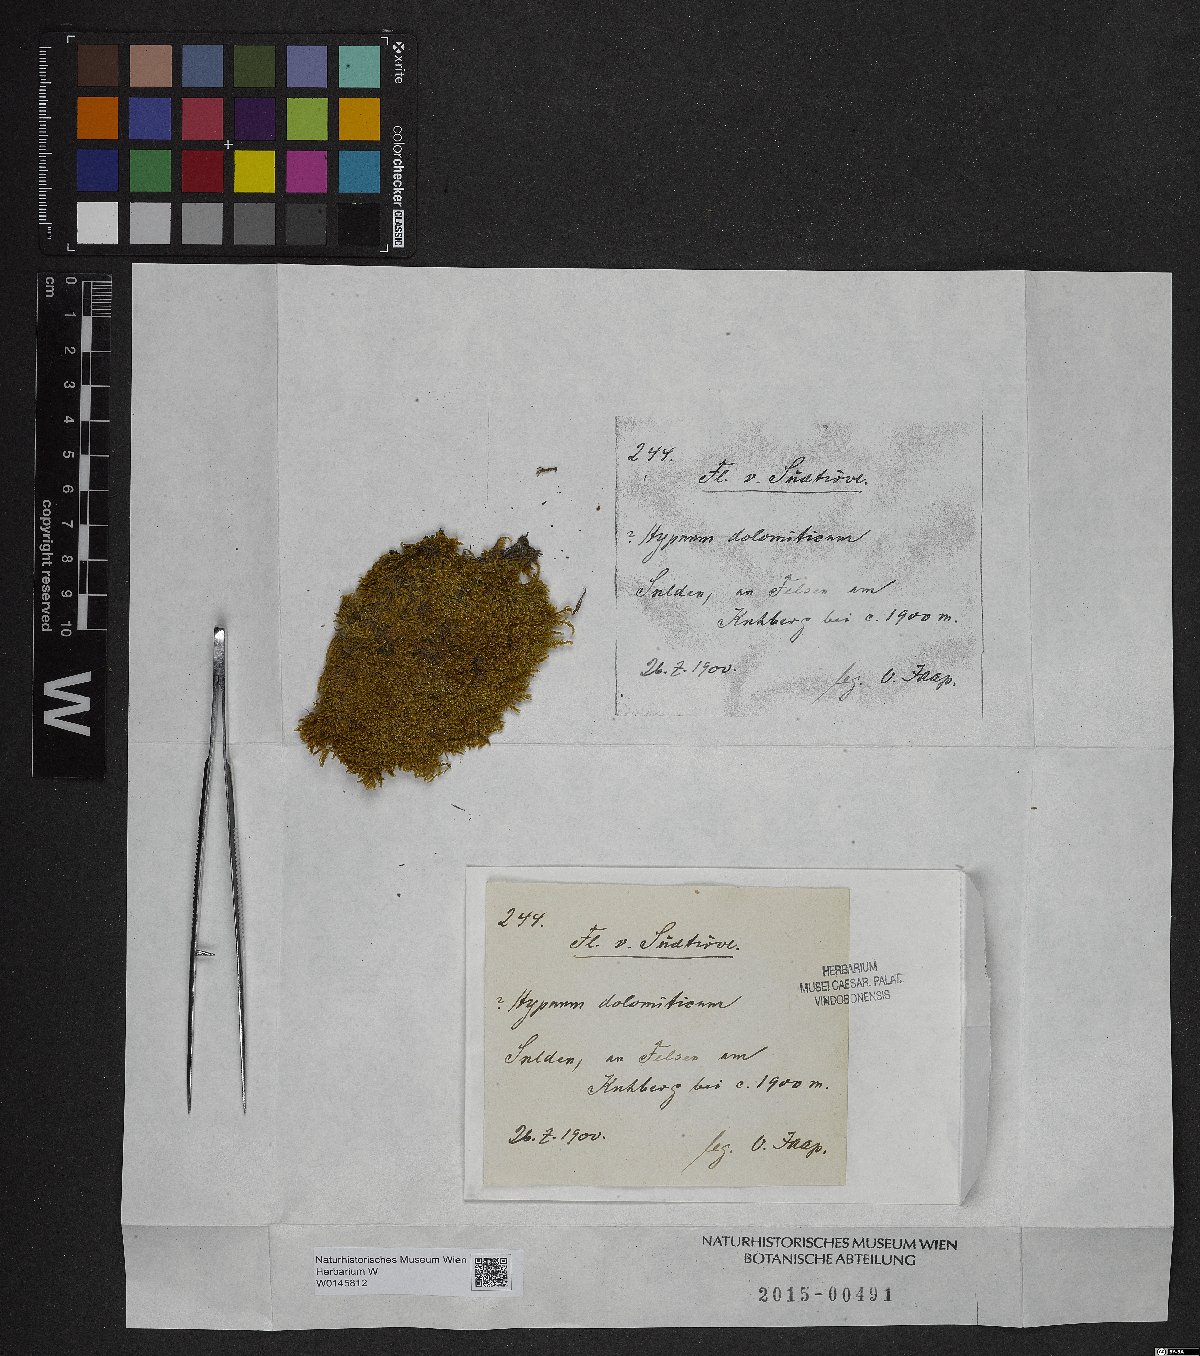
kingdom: Plantae
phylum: Bryophyta
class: Bryopsida
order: Hypnales
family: Pylaisiaceae
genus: Roaldia
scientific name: Roaldia dolomitica
